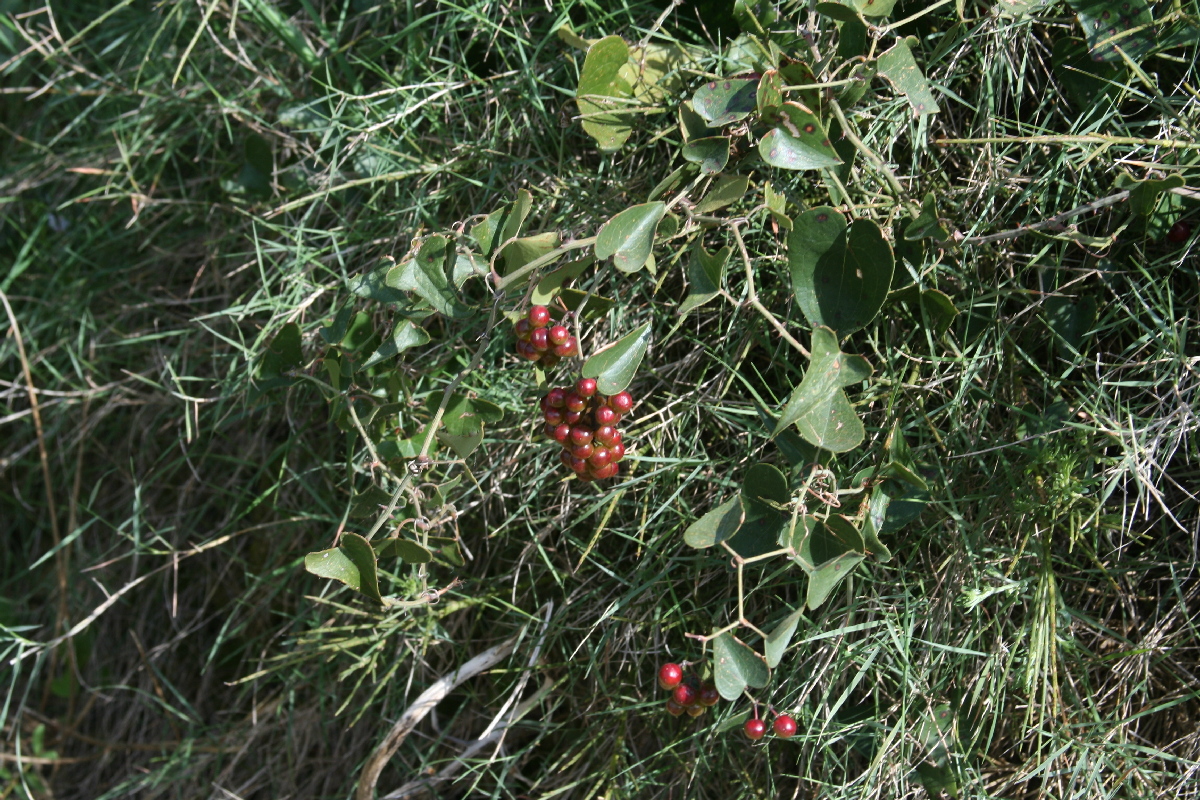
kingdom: Plantae
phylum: Tracheophyta
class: Liliopsida
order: Liliales
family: Smilacaceae
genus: Smilax
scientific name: Smilax aspera
